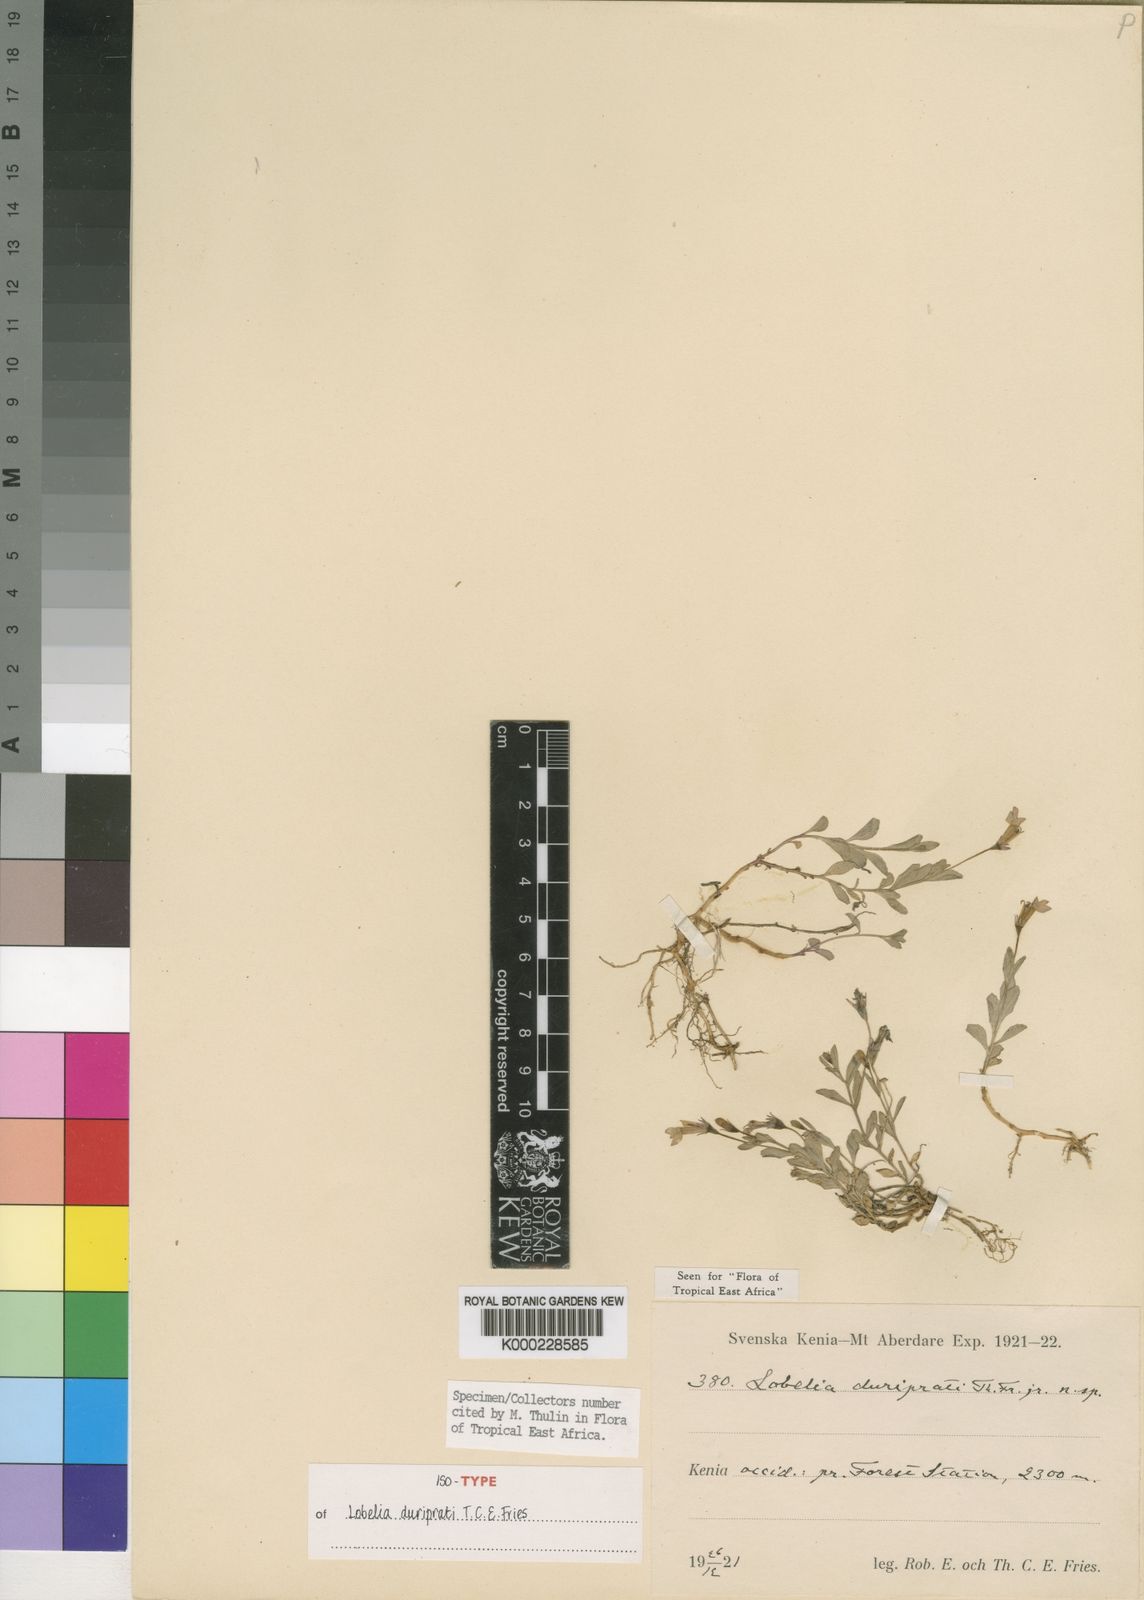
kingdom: Plantae
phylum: Tracheophyta
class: Magnoliopsida
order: Asterales
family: Campanulaceae
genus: Lobelia
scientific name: Lobelia duriprati
